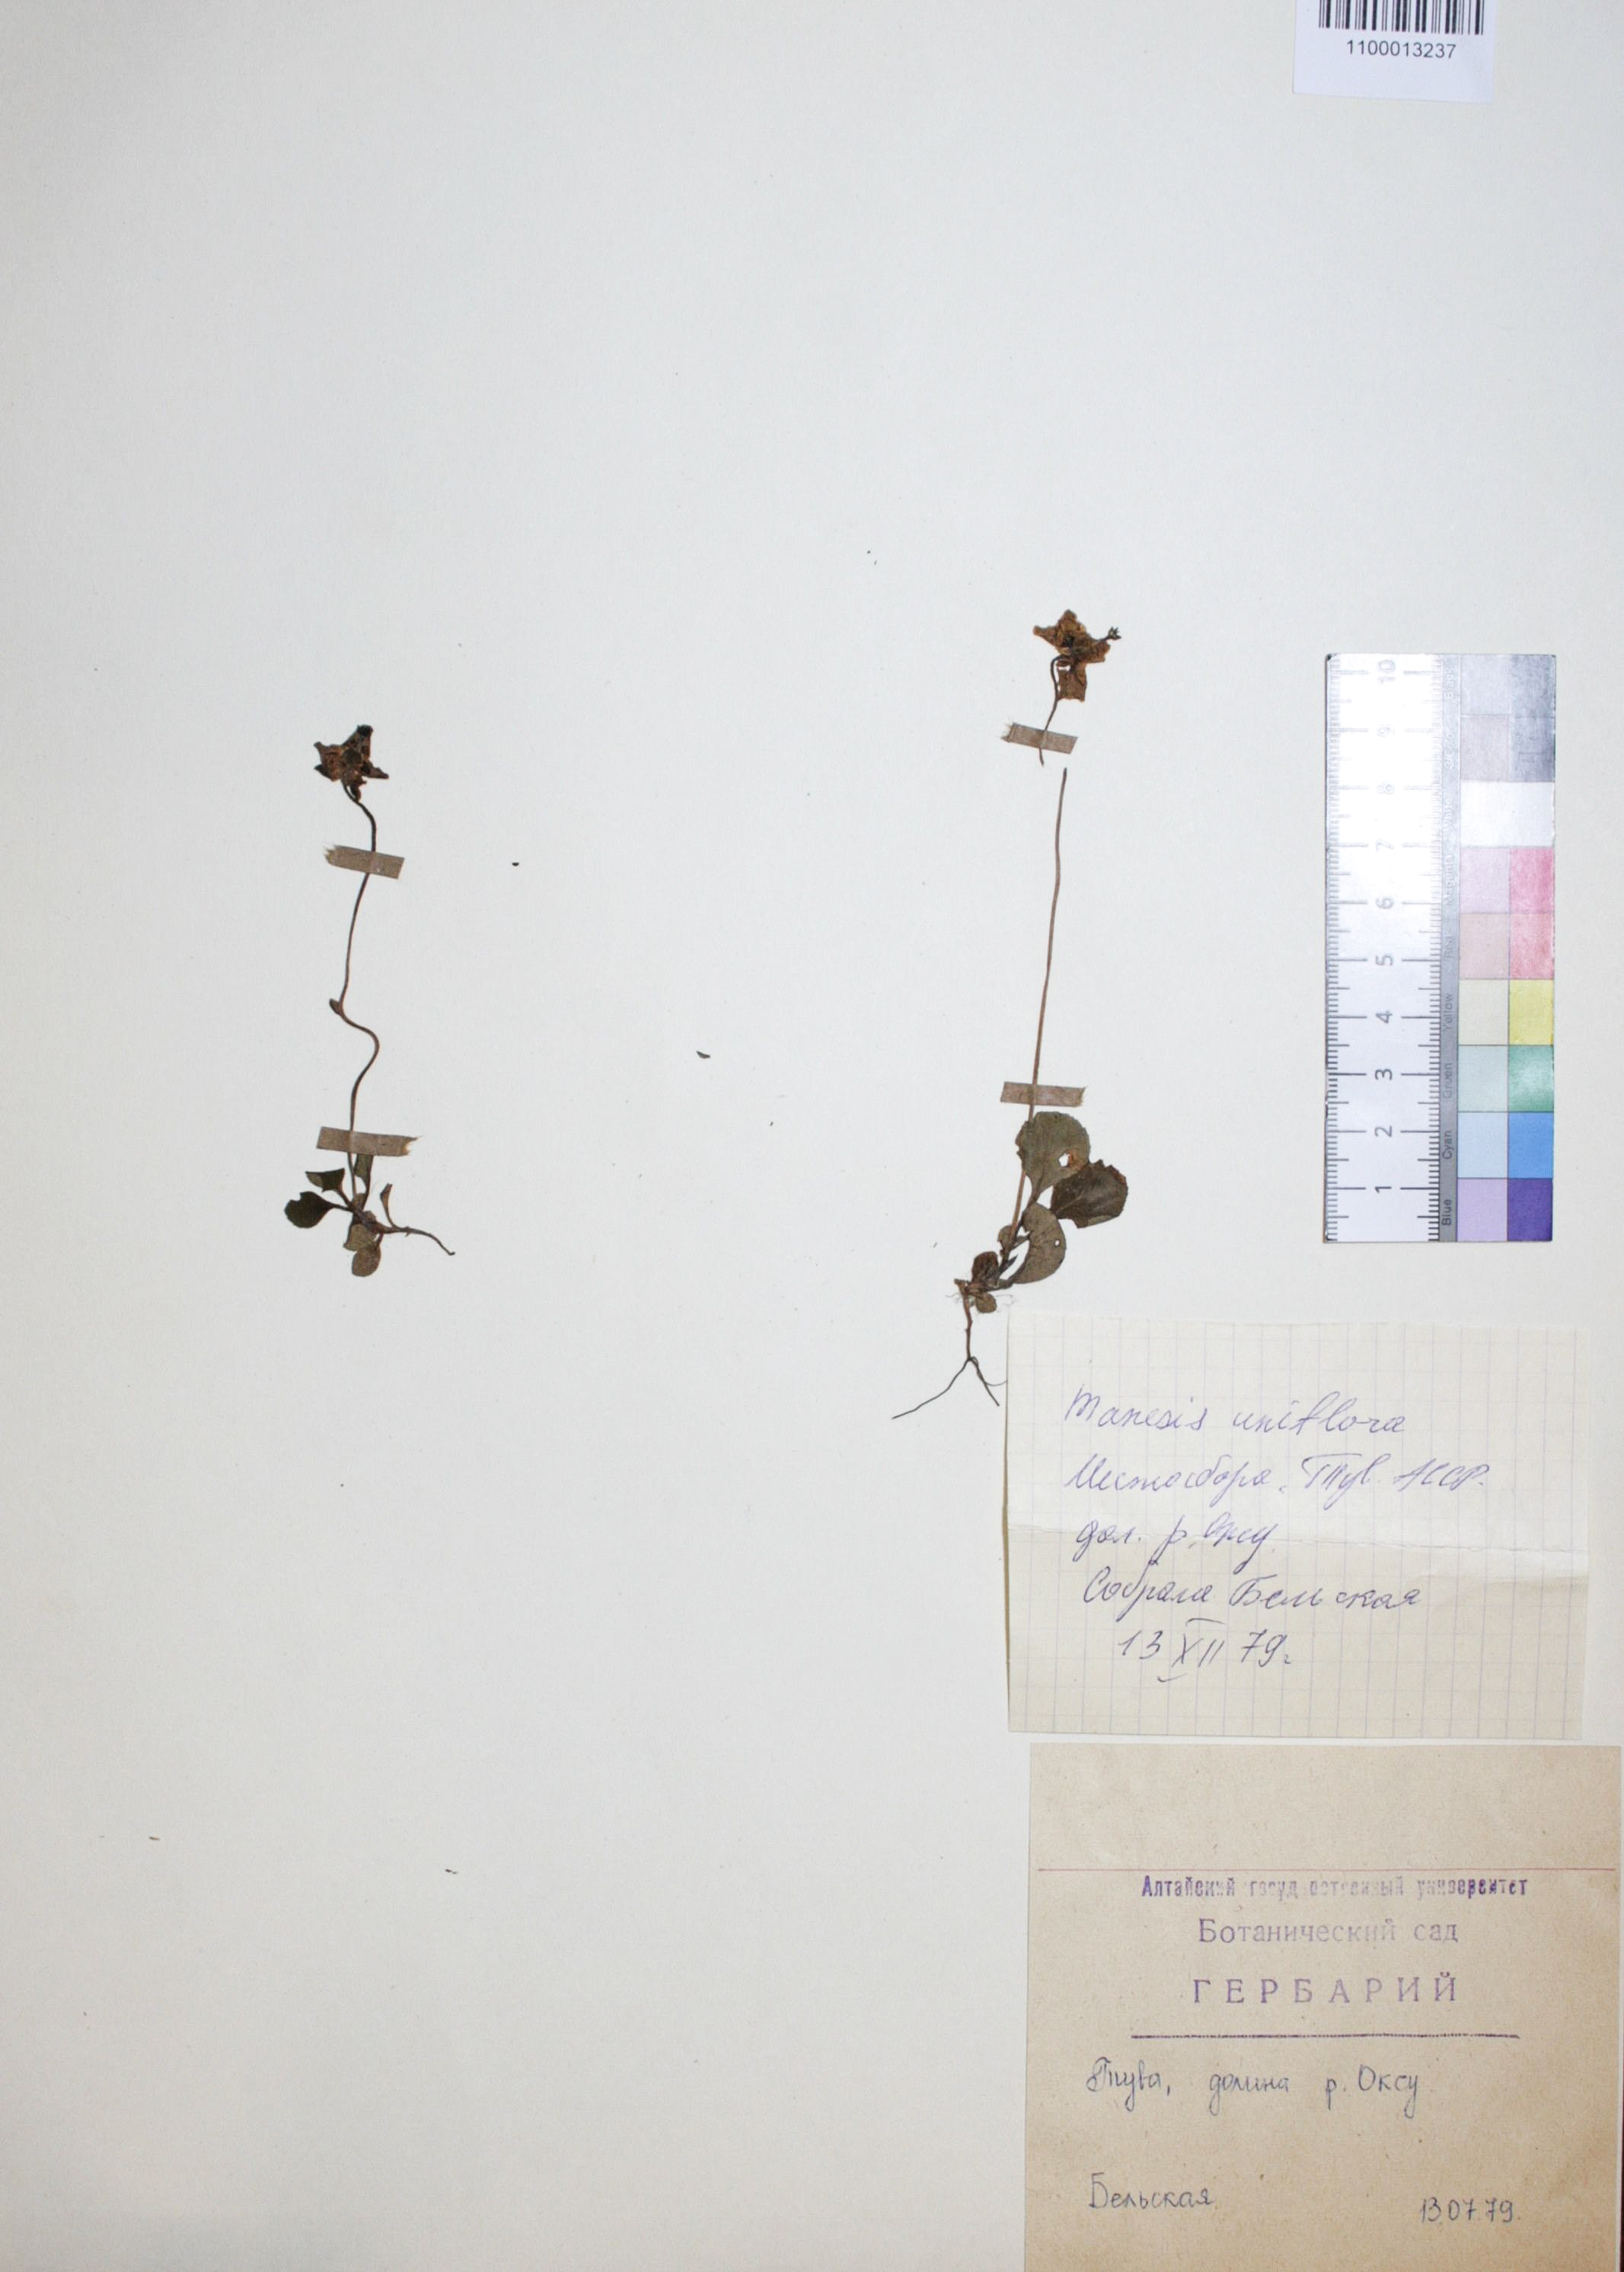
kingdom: Plantae
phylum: Tracheophyta
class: Magnoliopsida
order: Ericales
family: Ericaceae
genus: Moneses
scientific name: Moneses uniflora
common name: One-flowered wintergreen
